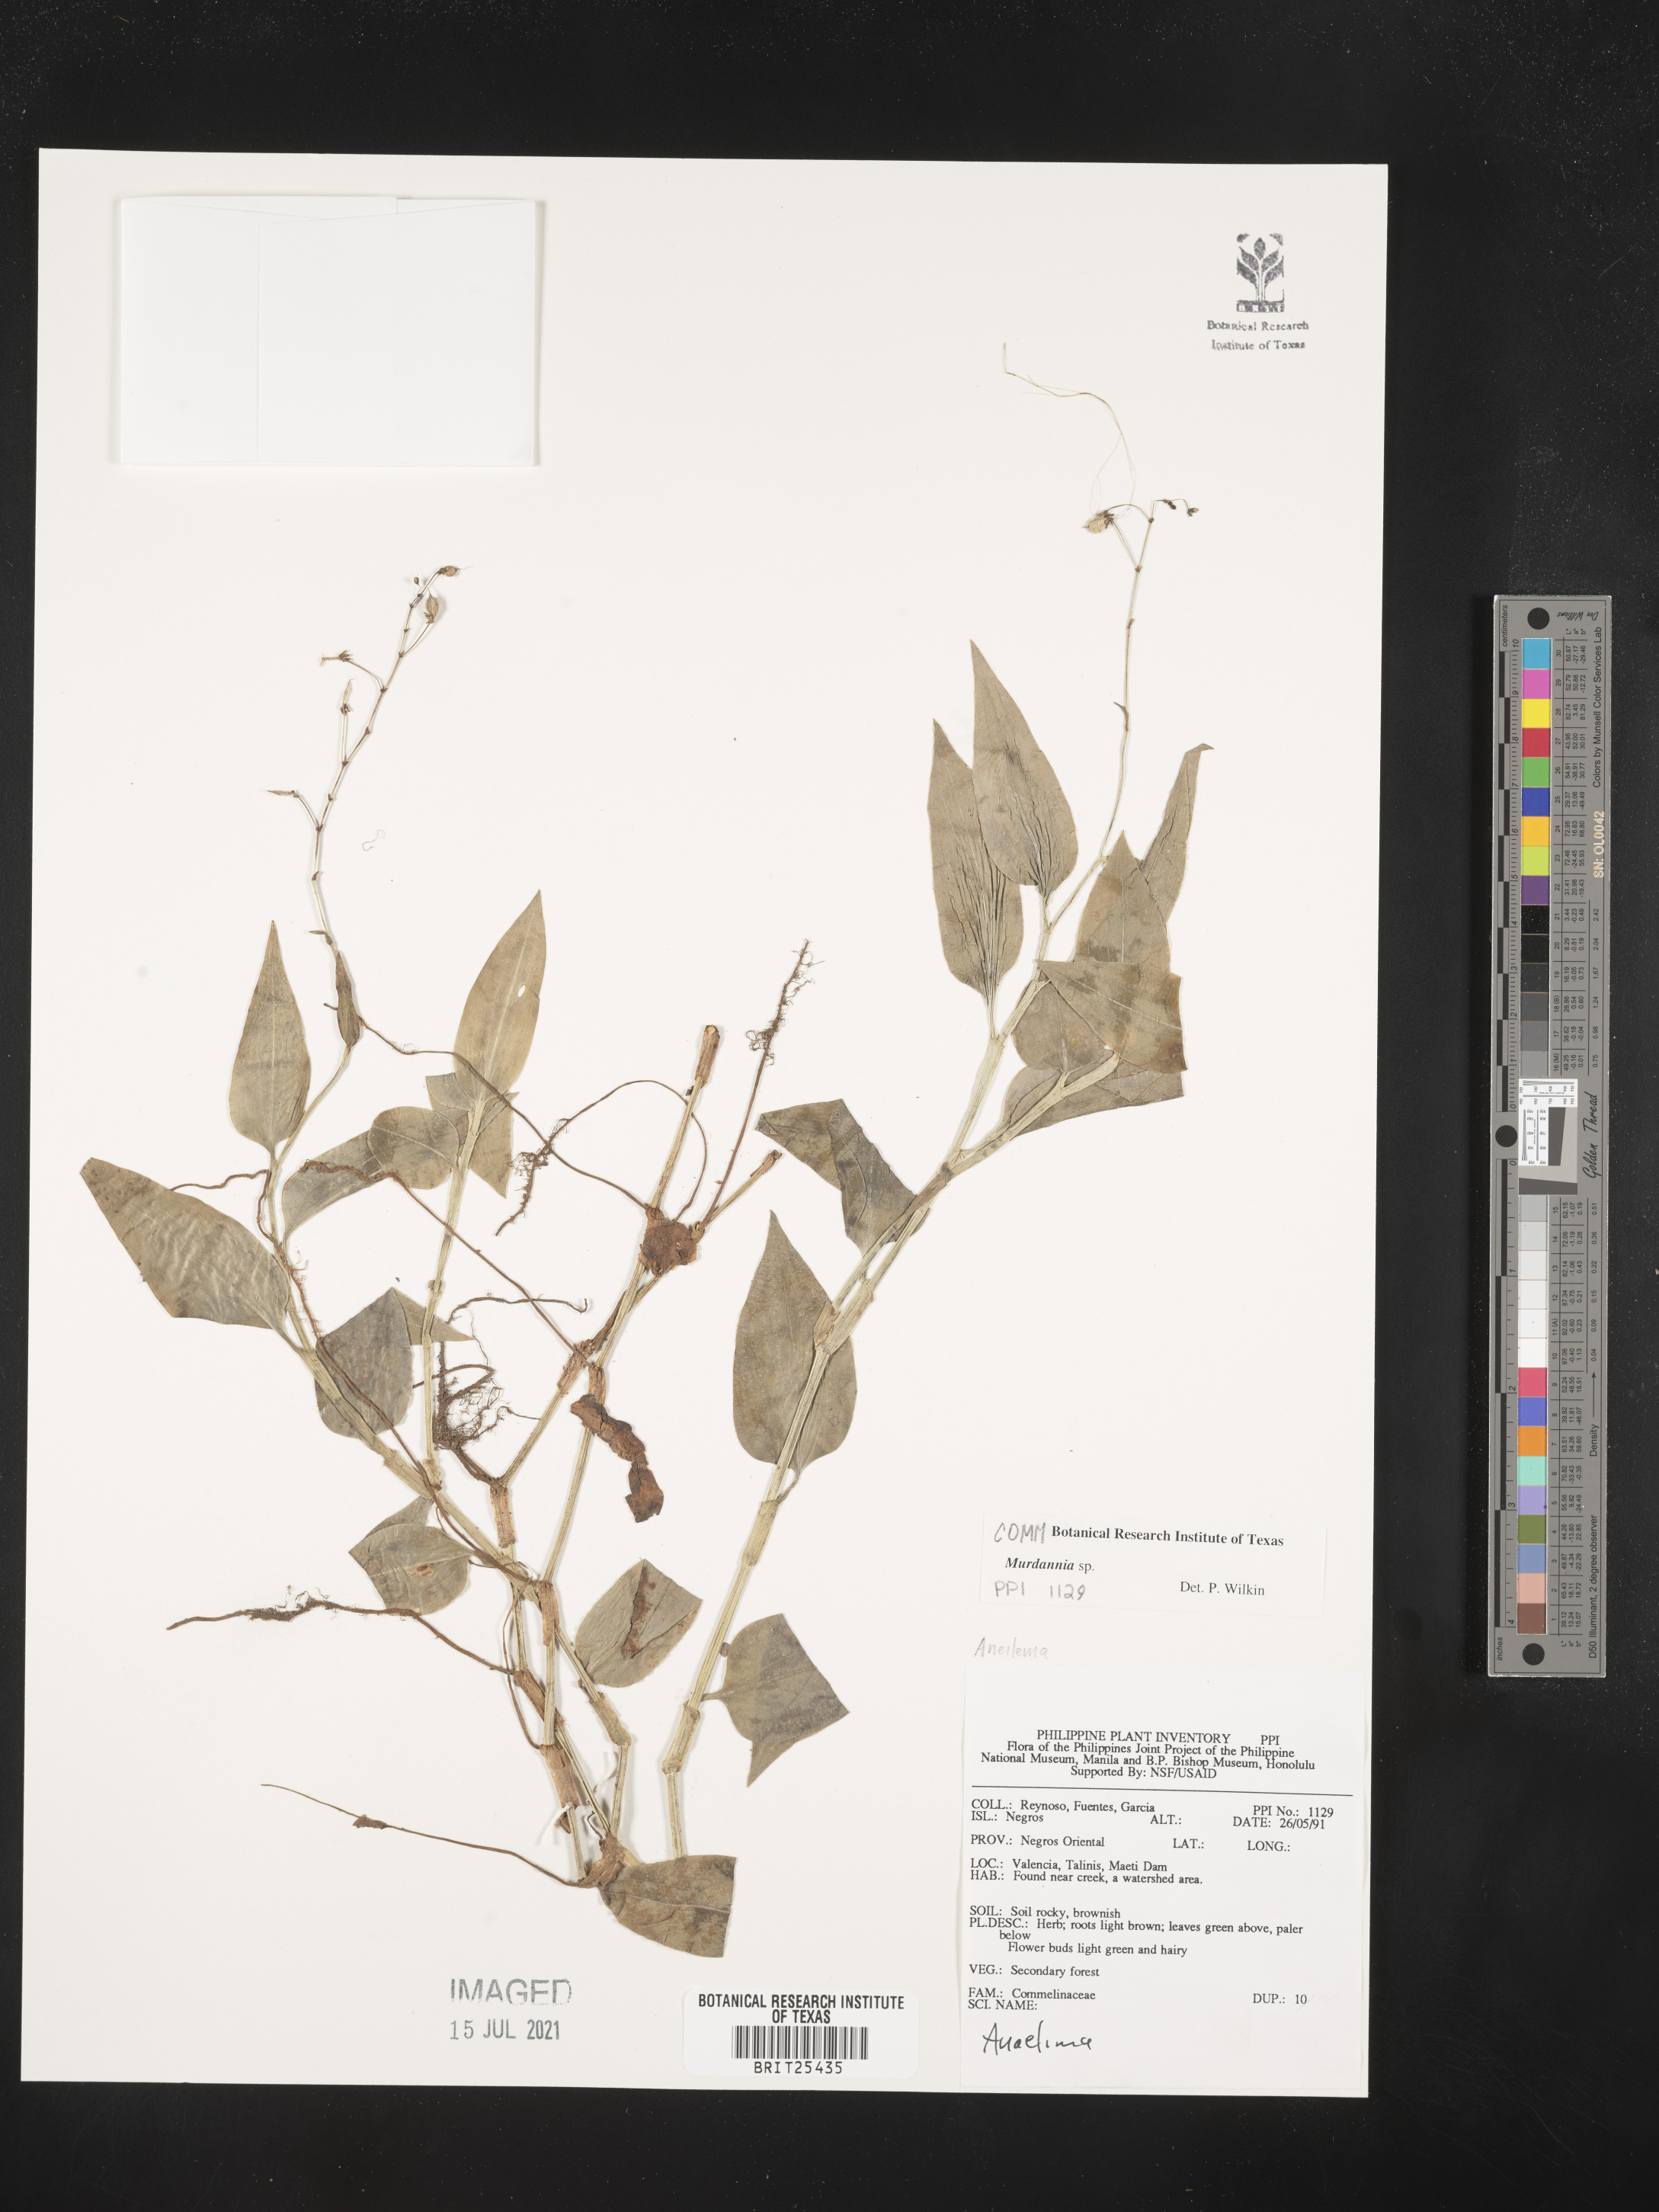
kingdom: Plantae
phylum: Tracheophyta
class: Liliopsida
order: Commelinales
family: Commelinaceae
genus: Murdannia
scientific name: Murdannia
